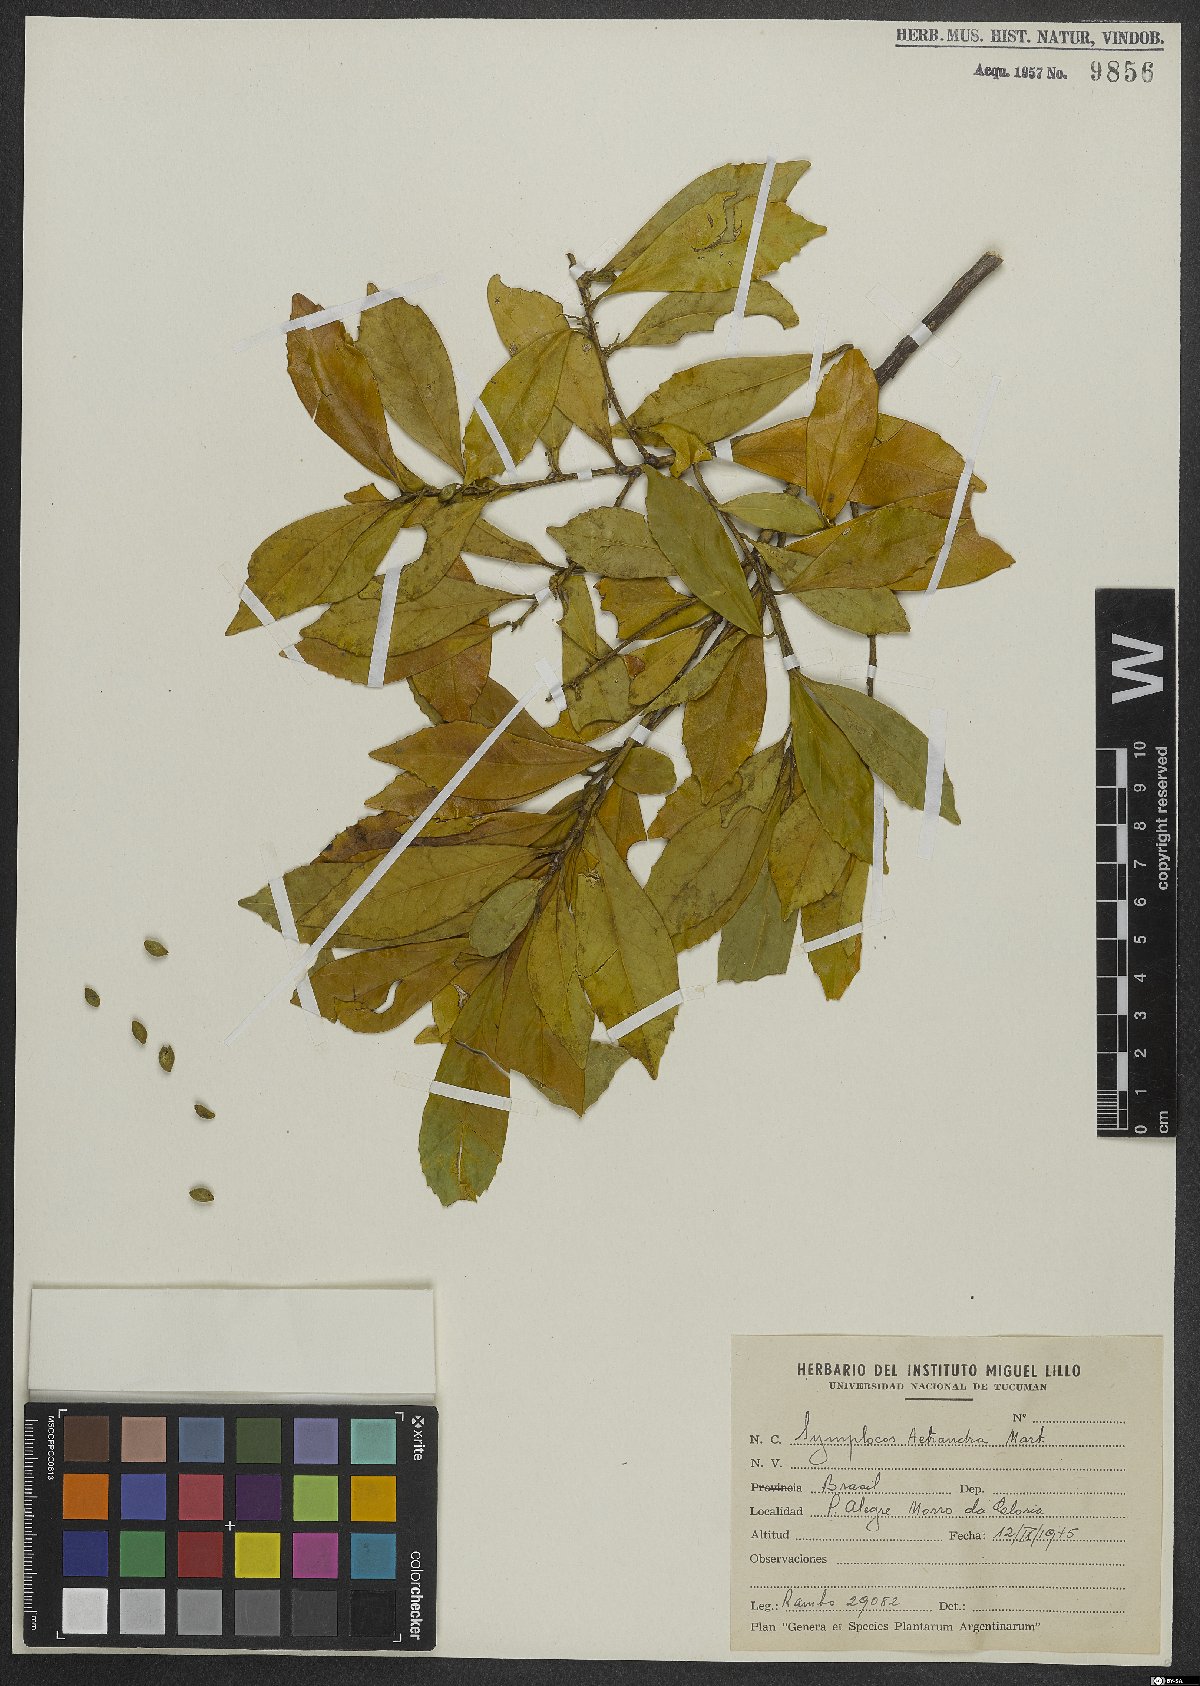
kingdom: Plantae
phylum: Tracheophyta
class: Magnoliopsida
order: Ericales
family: Symplocaceae
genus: Symplocos
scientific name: Symplocos tetrandra
